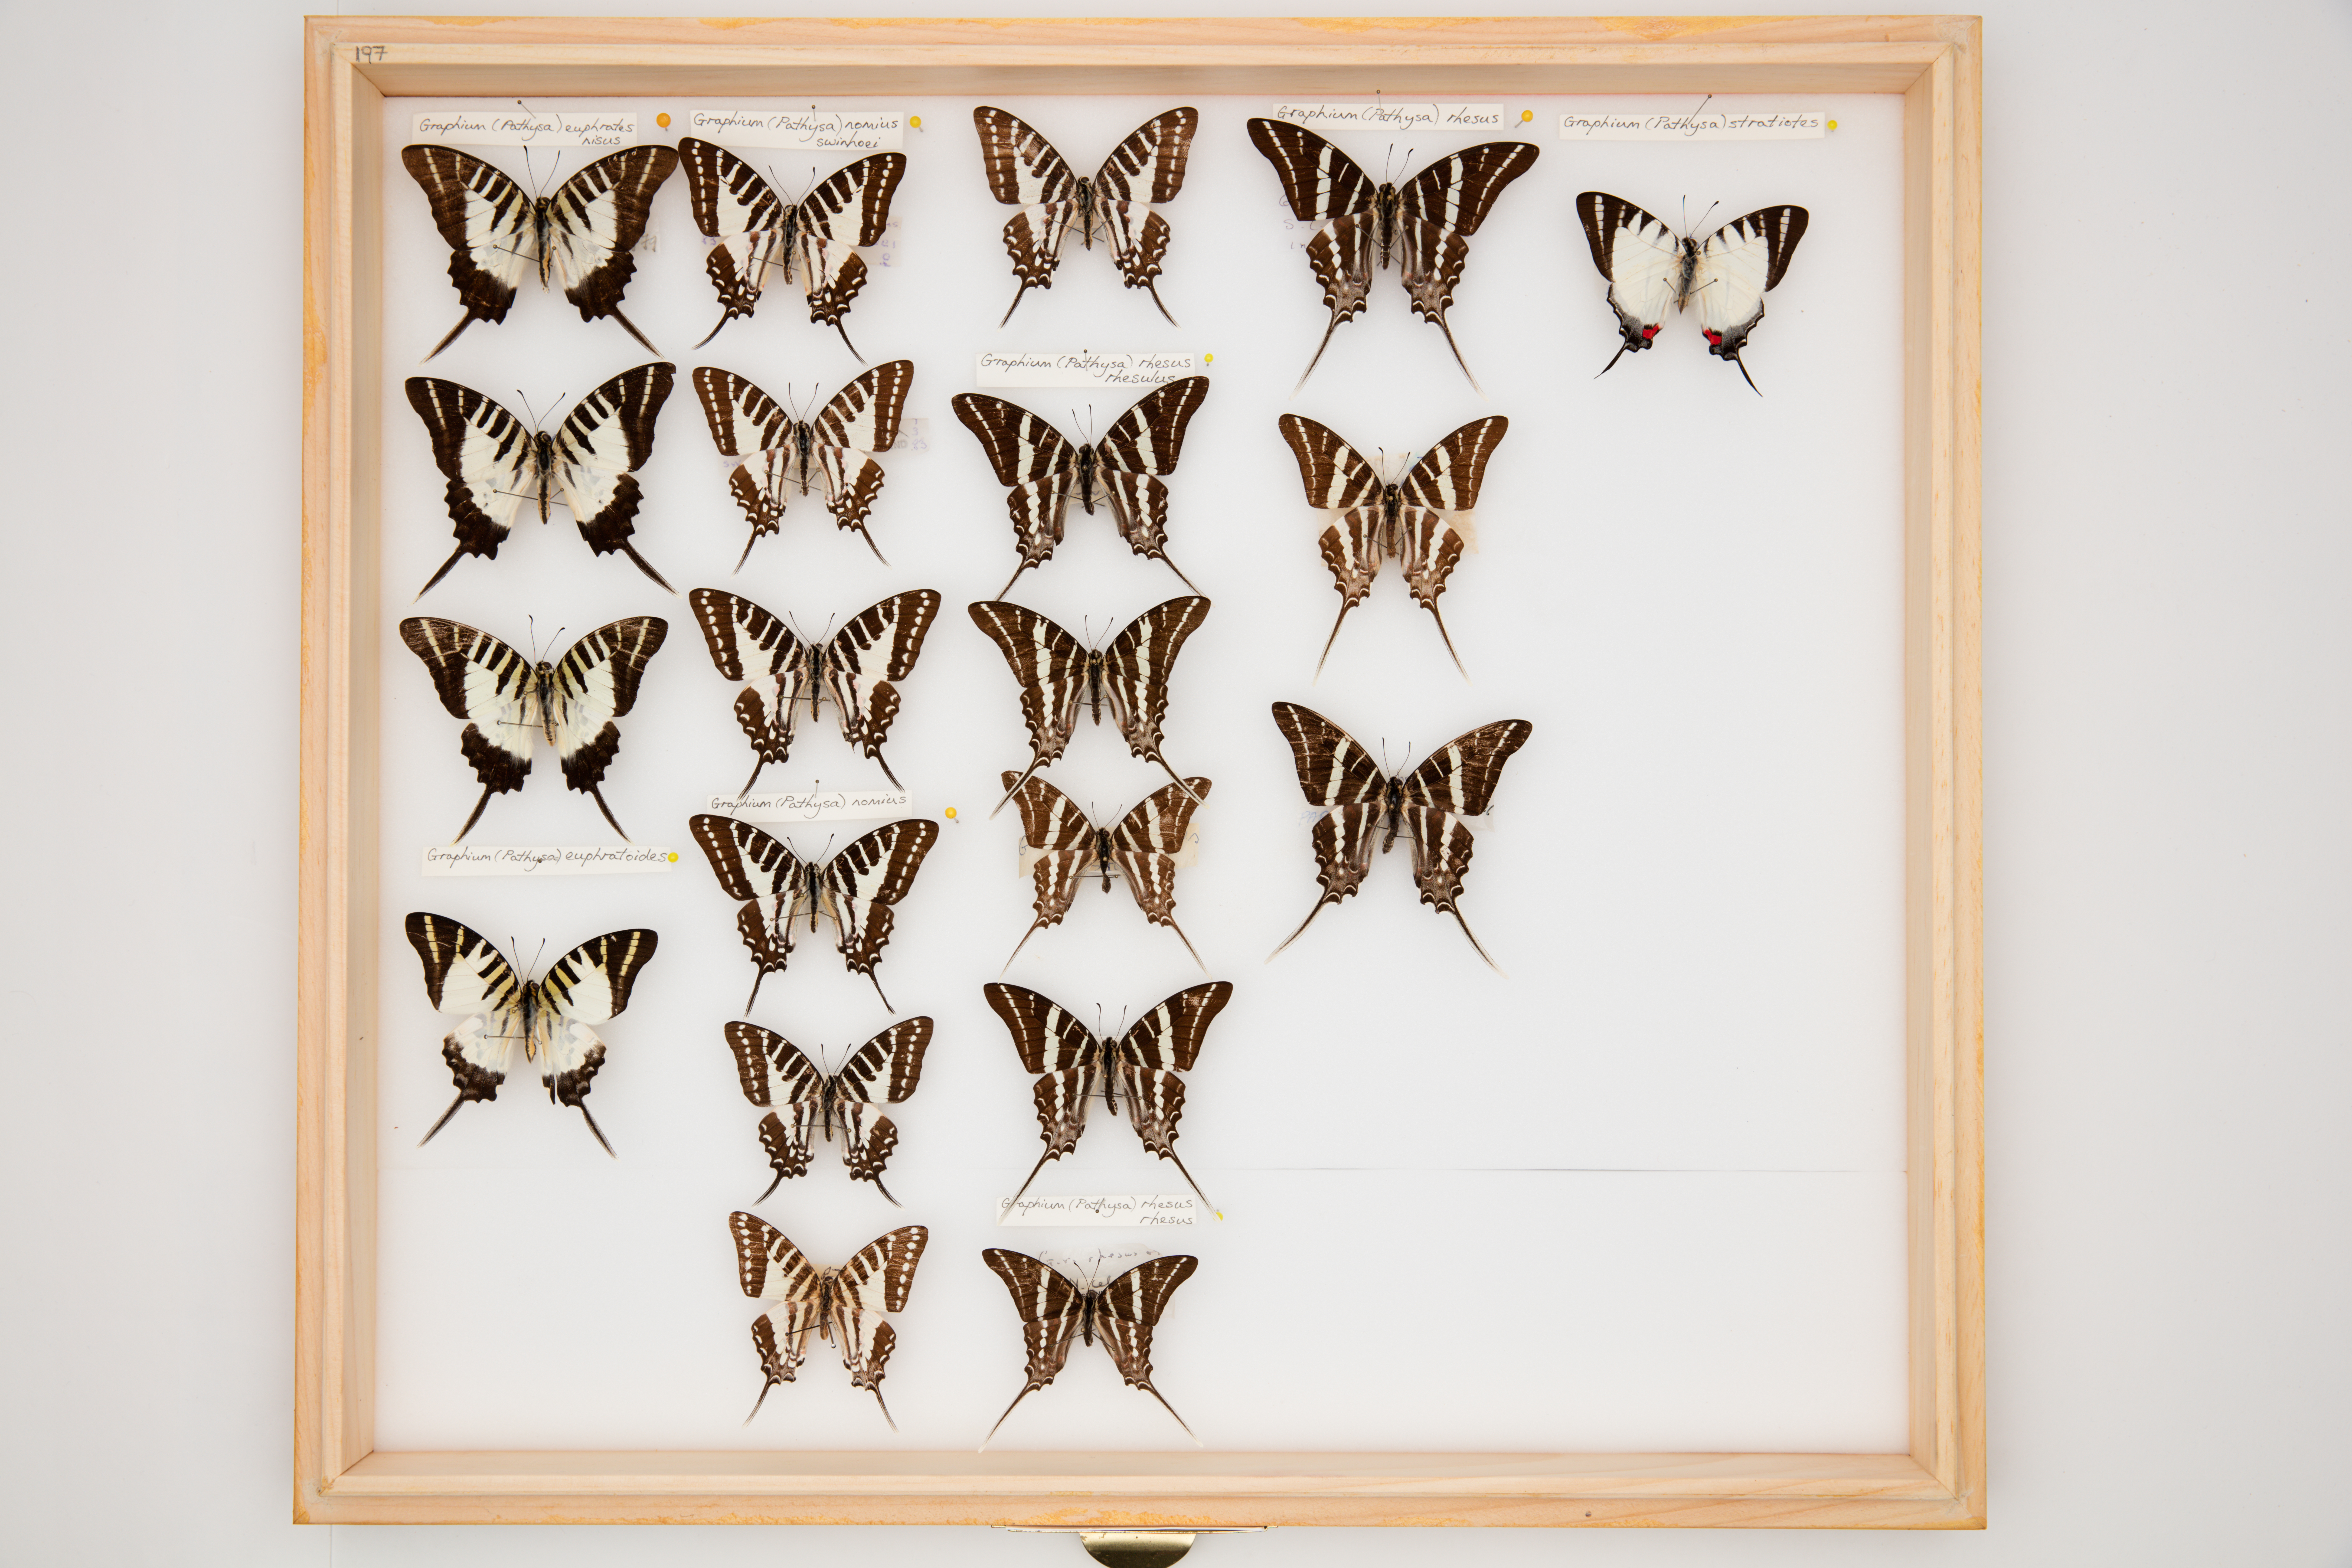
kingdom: Animalia
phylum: Arthropoda
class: Insecta
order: Lepidoptera
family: Papilionidae
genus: Graphium
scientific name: Graphium nomius
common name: Spot swordtail
